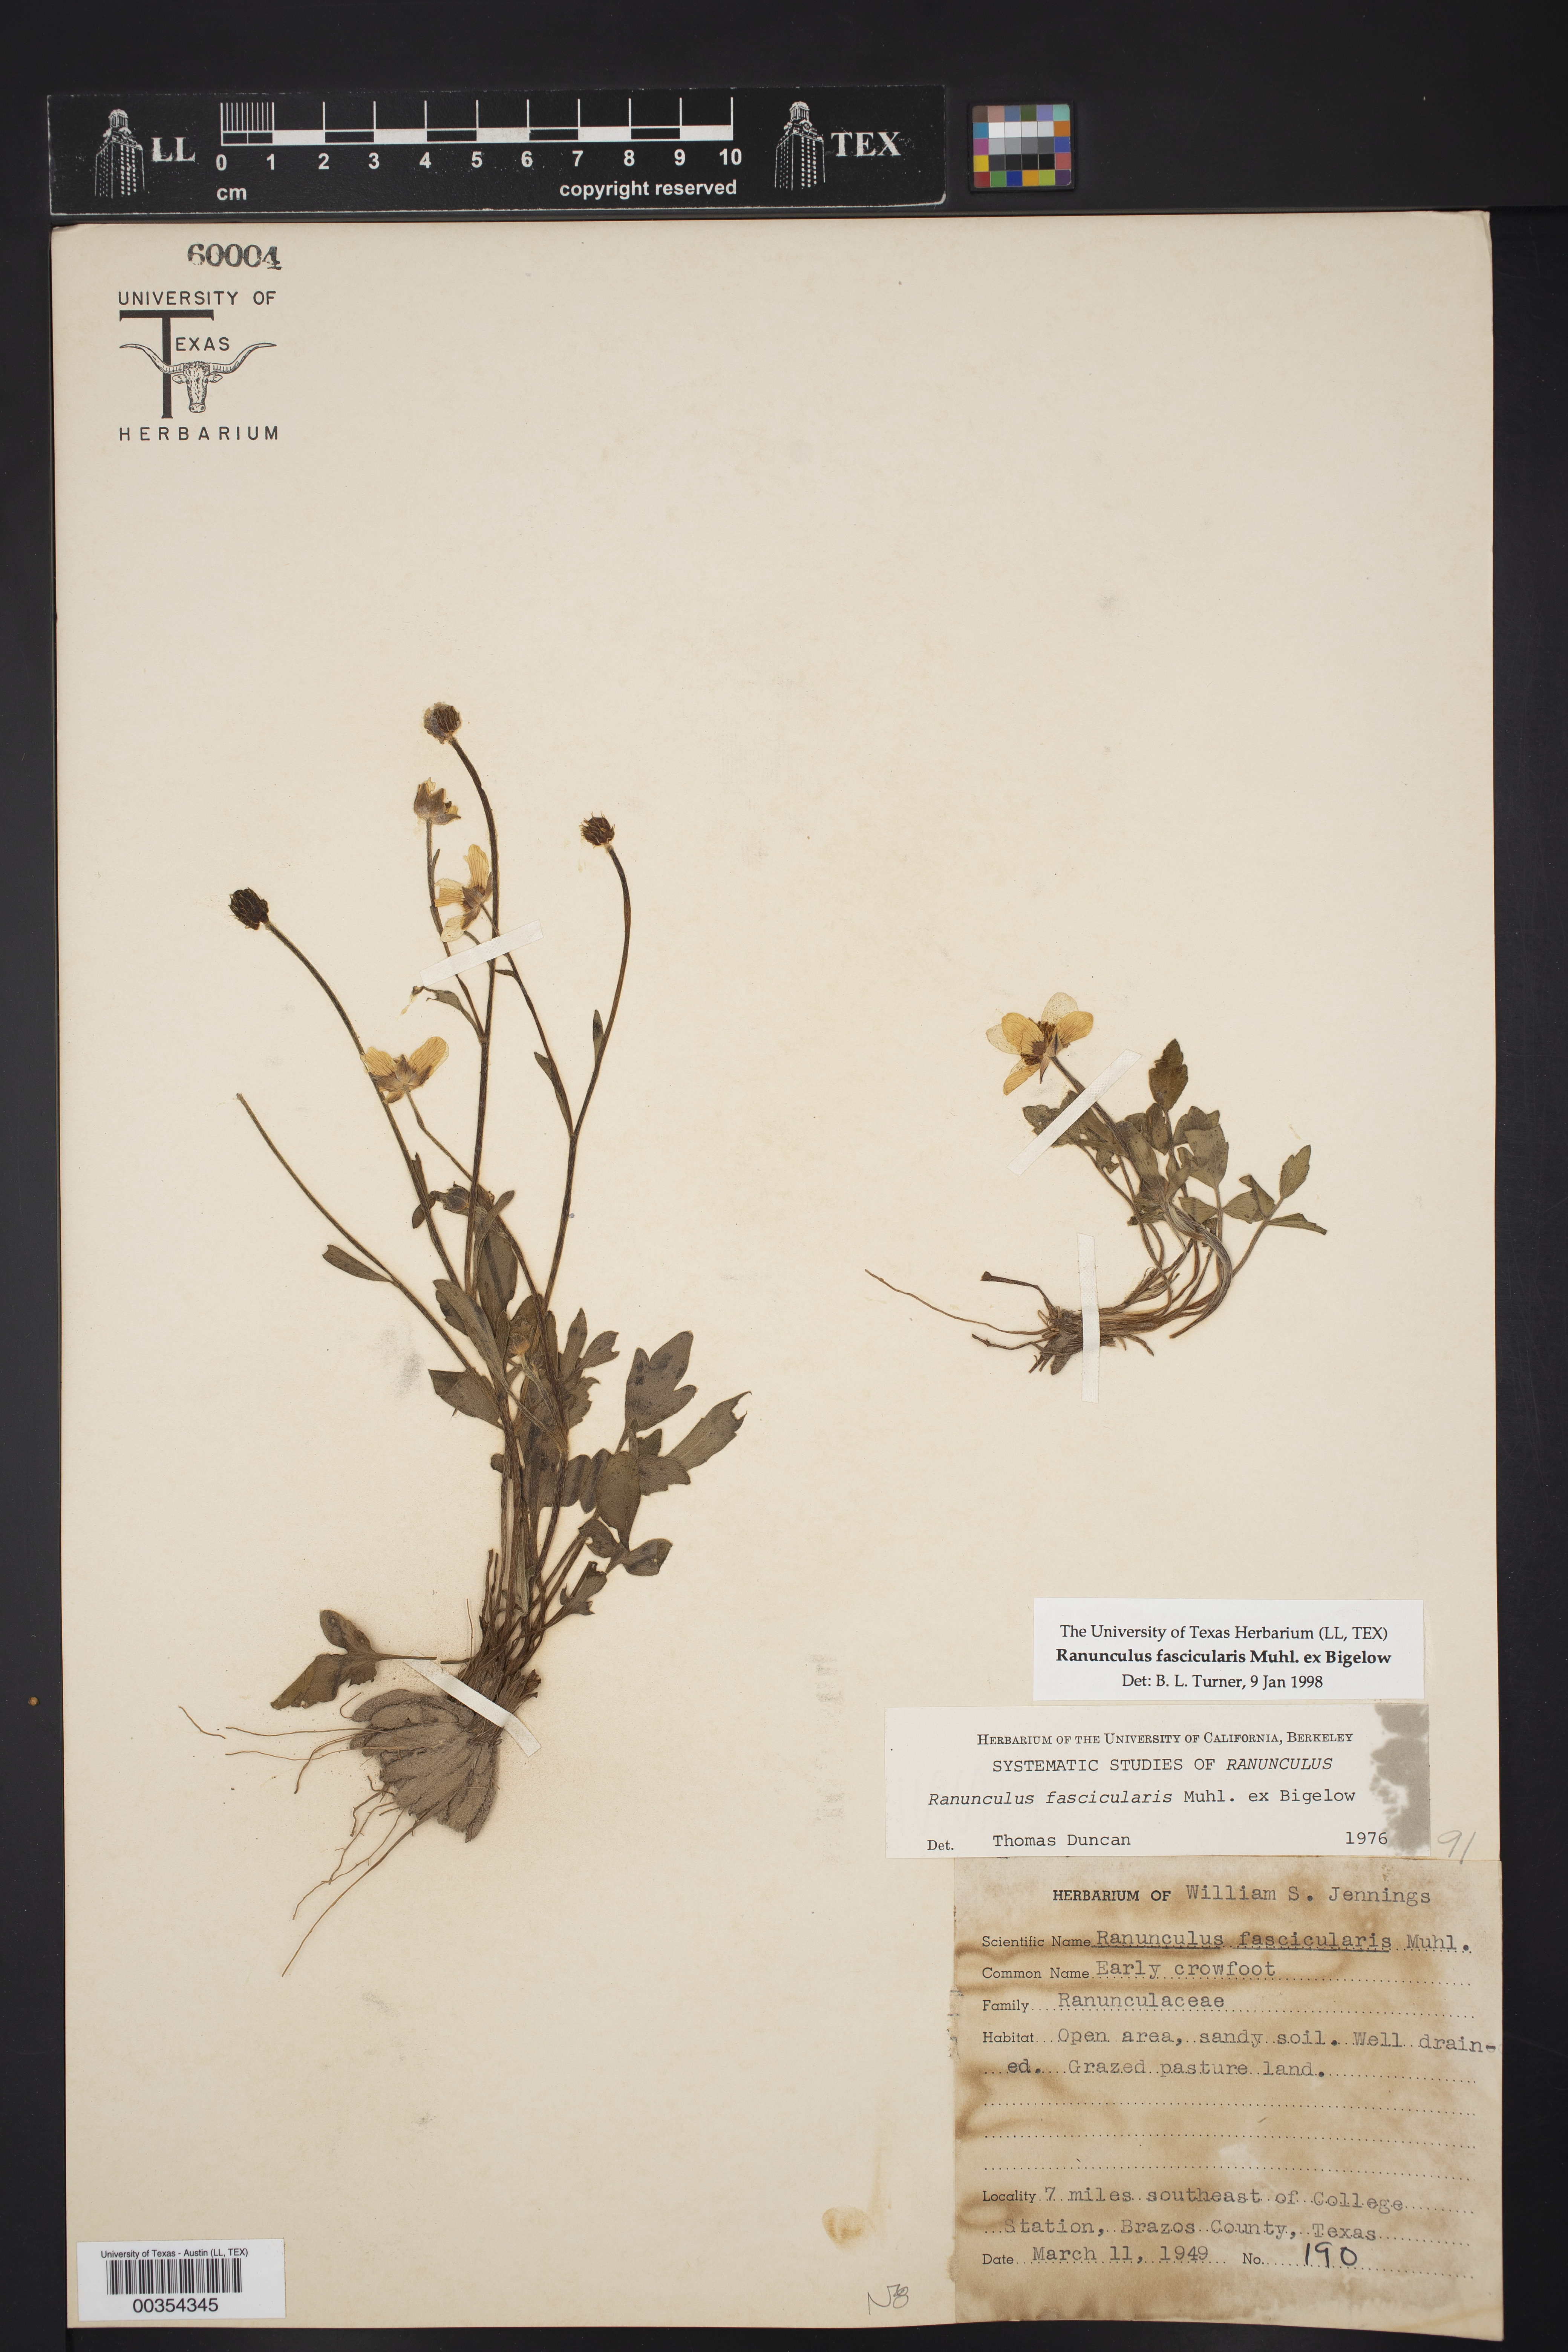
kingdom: Plantae
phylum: Tracheophyta
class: Magnoliopsida
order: Ranunculales
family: Ranunculaceae
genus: Ranunculus
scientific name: Ranunculus fascicularis
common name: Early buttercup
